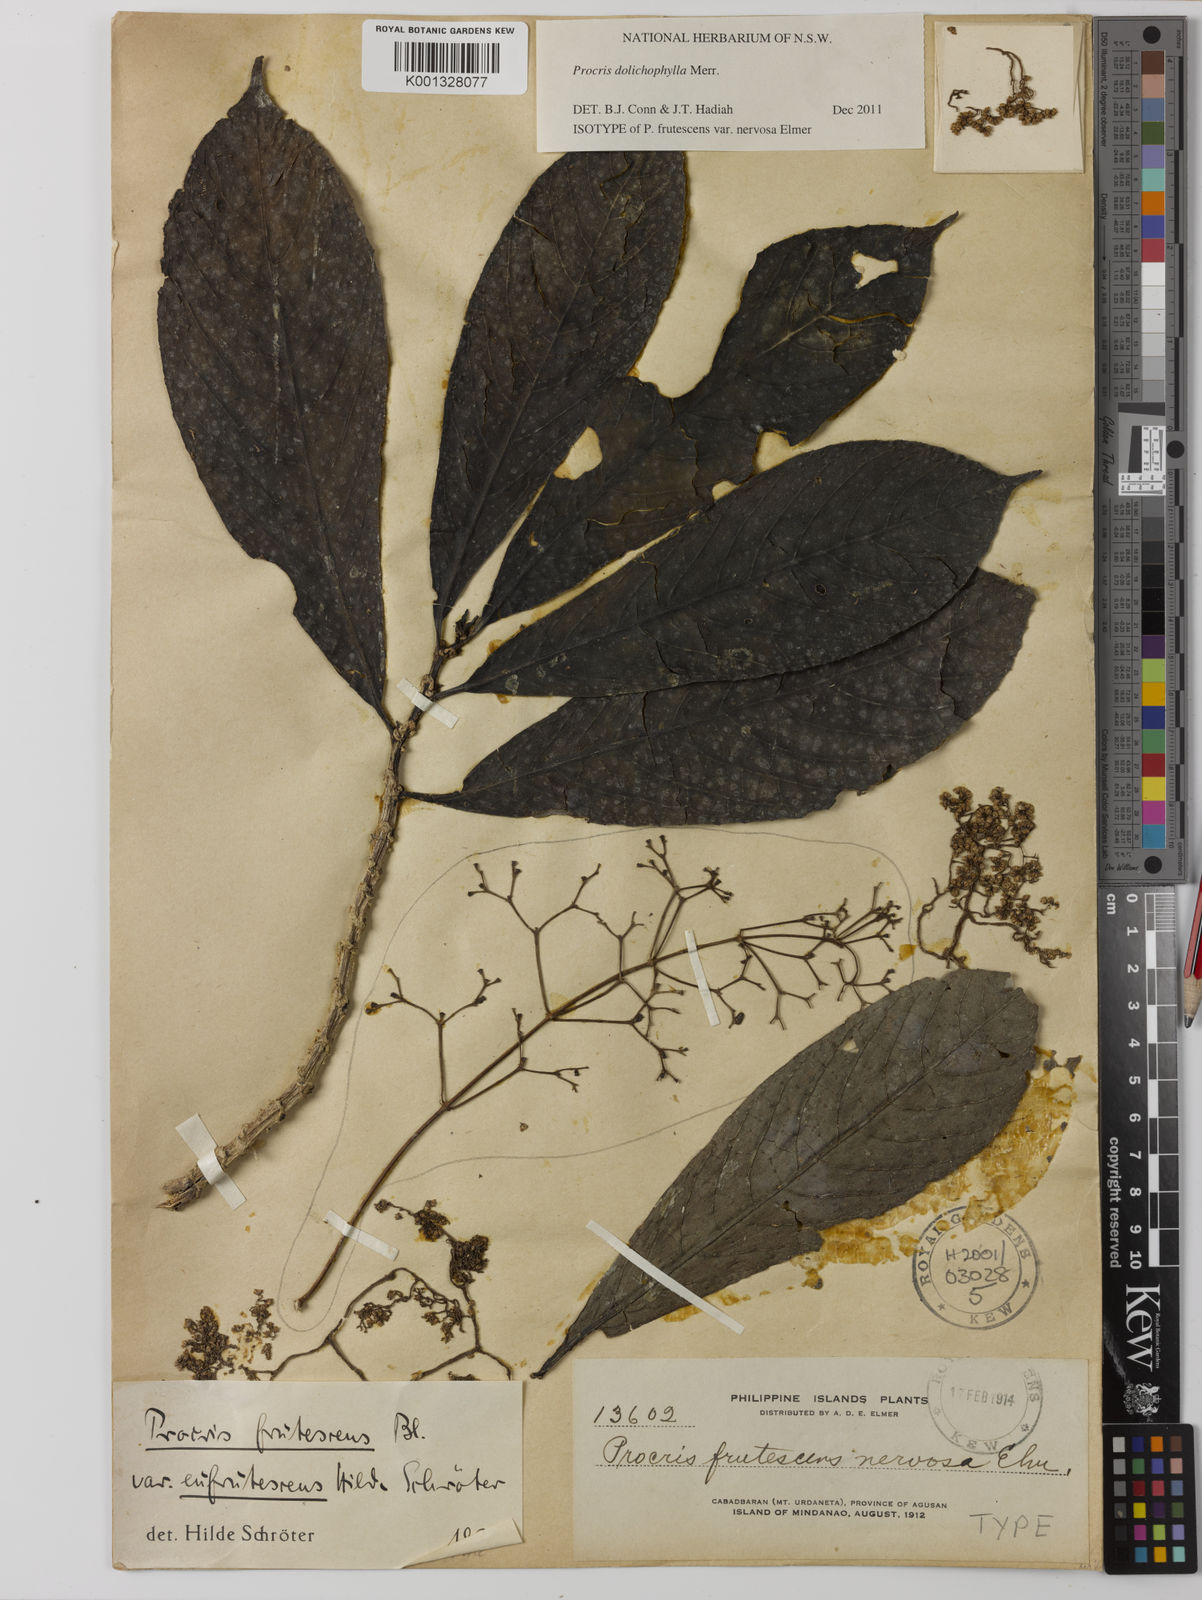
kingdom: Plantae
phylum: Tracheophyta
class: Magnoliopsida
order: Rosales
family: Urticaceae
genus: Procris
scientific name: Procris dolichophylla
